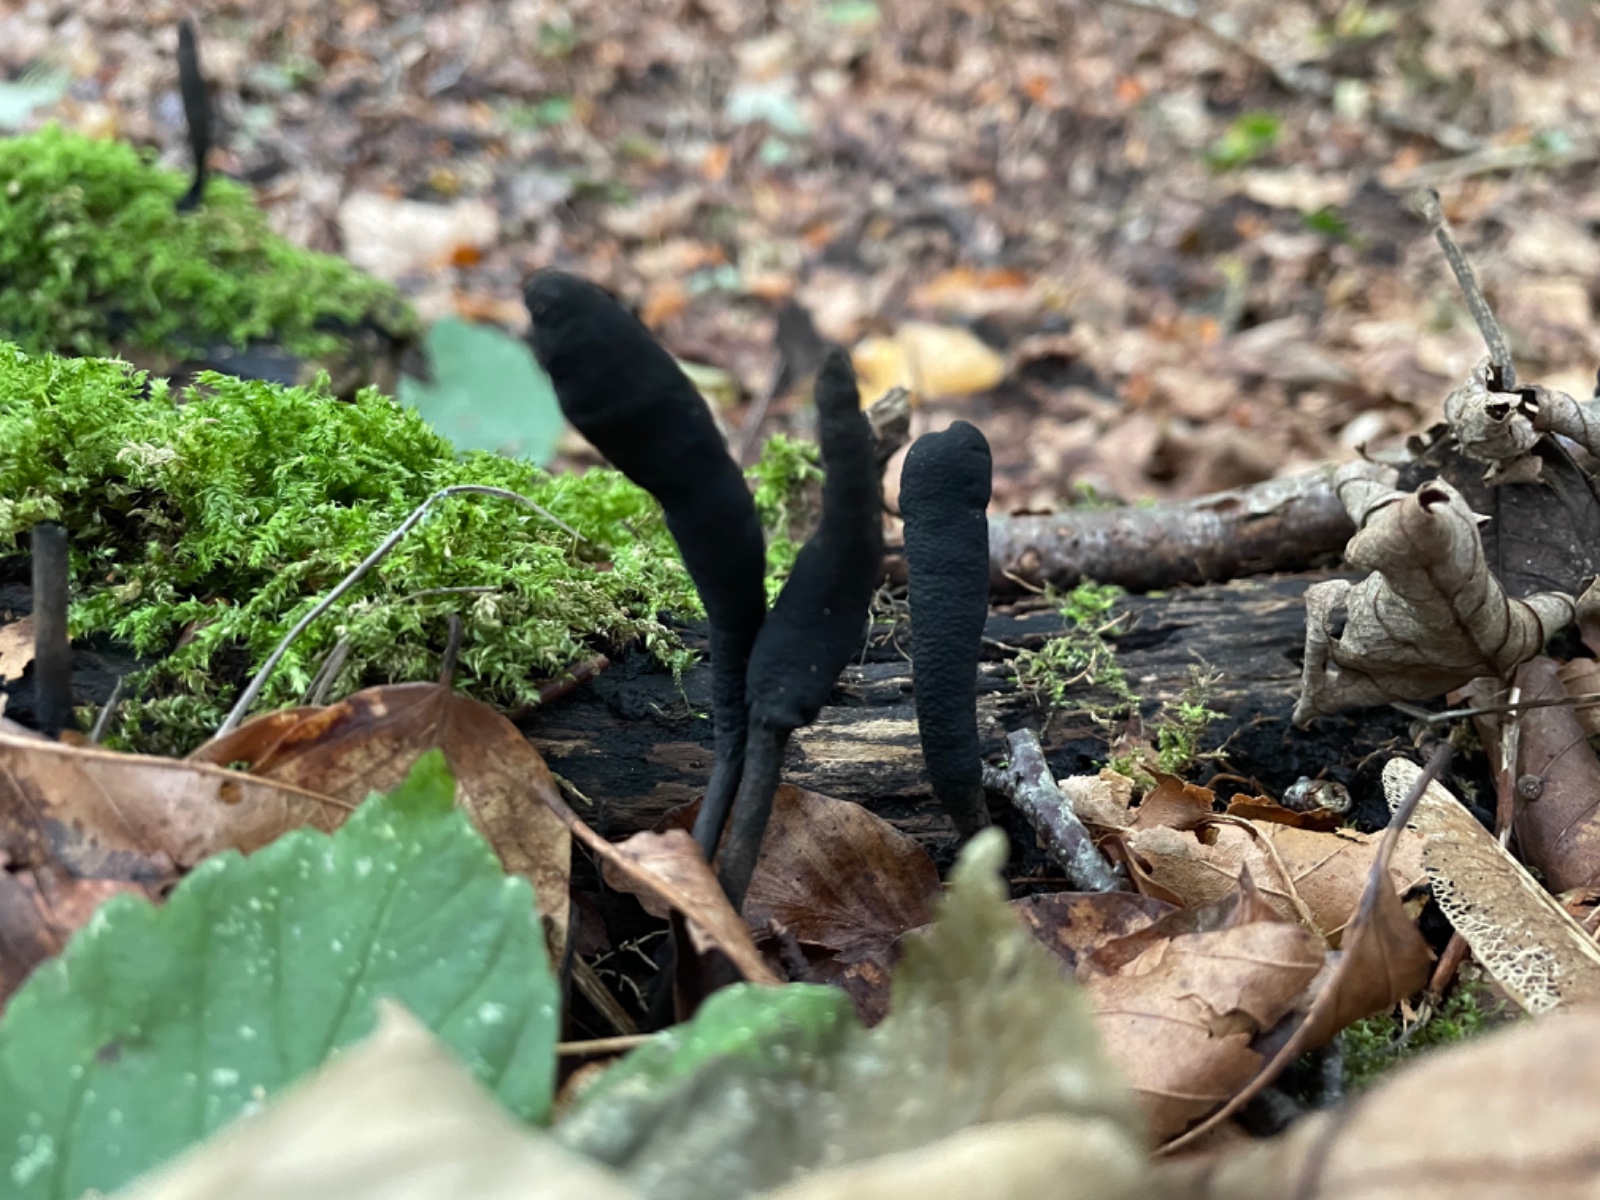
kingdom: Fungi
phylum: Ascomycota
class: Sordariomycetes
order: Xylariales
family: Xylariaceae
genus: Xylaria
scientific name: Xylaria longipes
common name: slank stødsvamp
